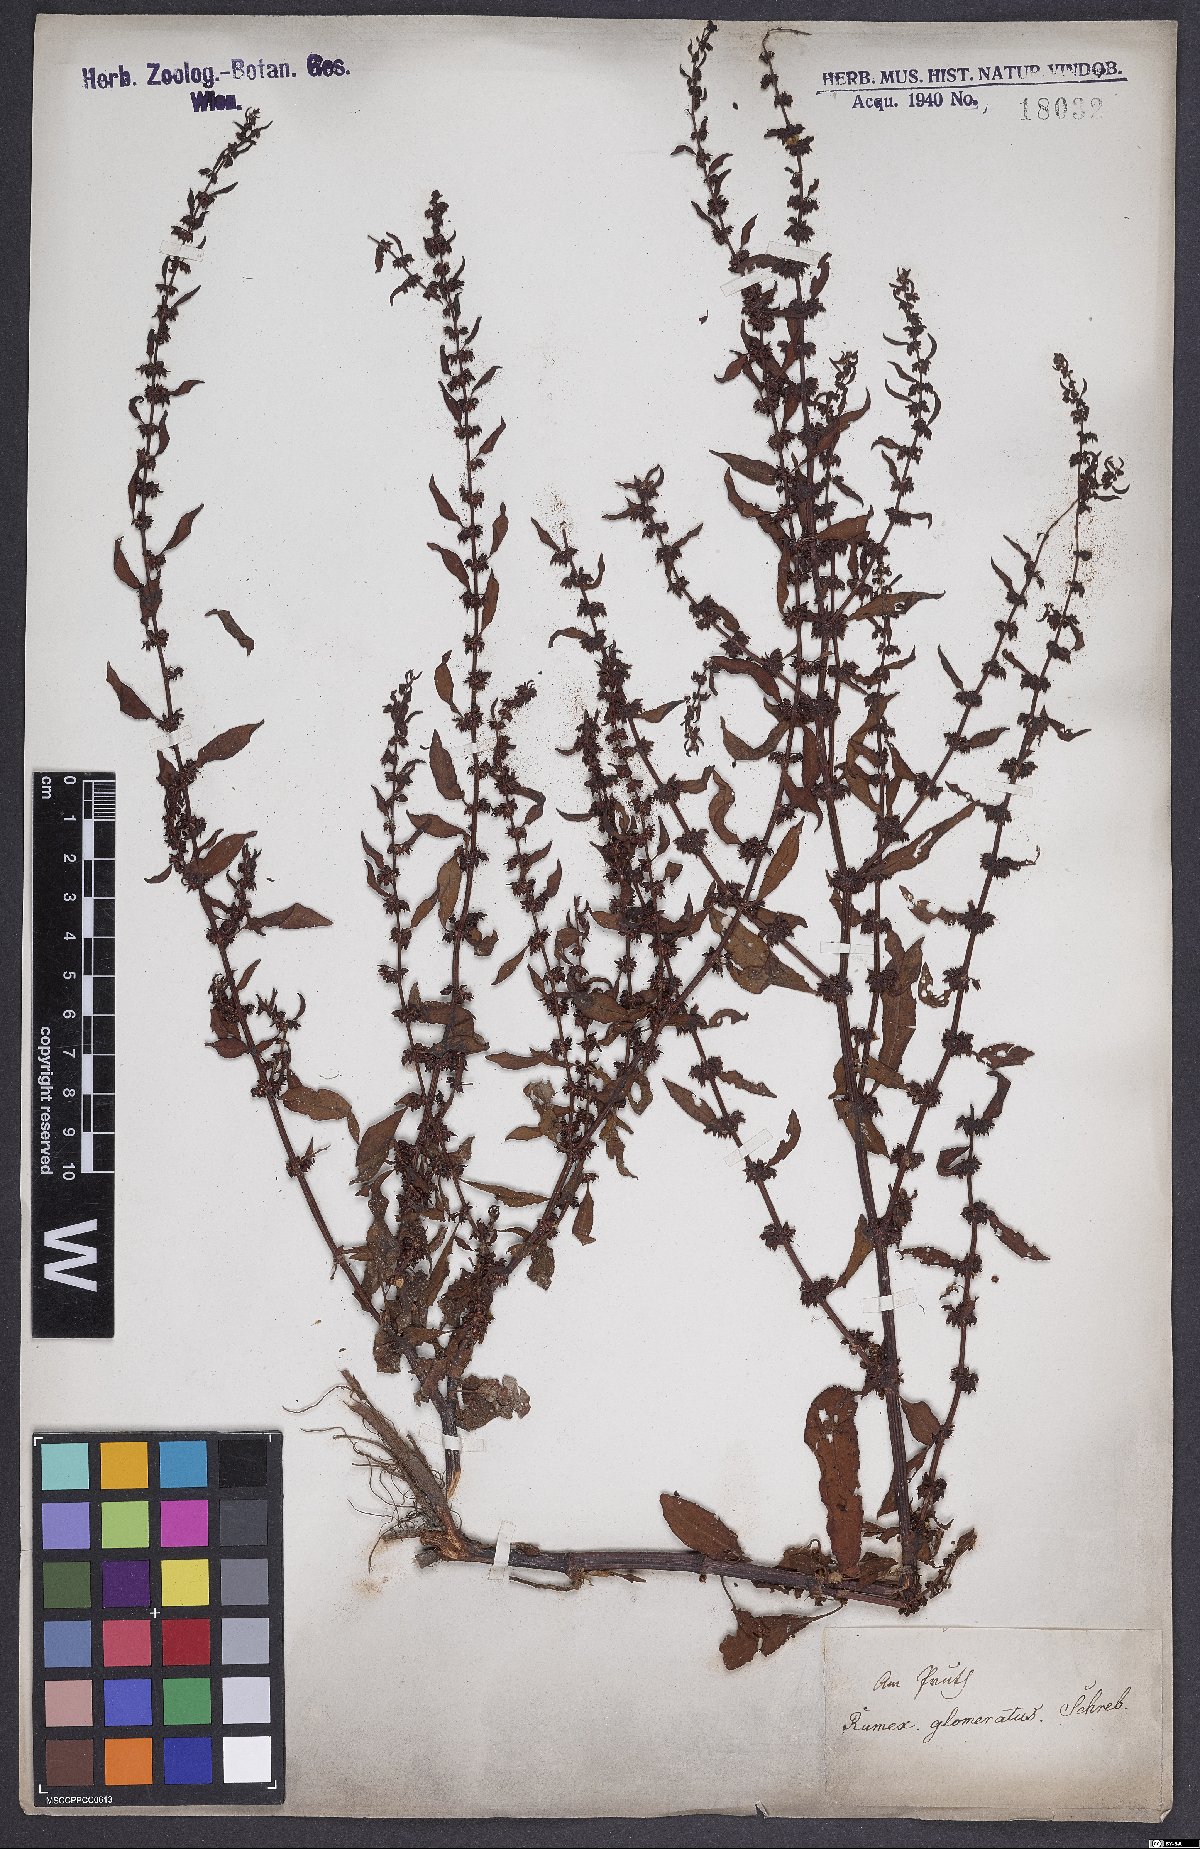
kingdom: Plantae
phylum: Tracheophyta
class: Magnoliopsida
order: Caryophyllales
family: Polygonaceae
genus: Rumex
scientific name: Rumex conglomeratus
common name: Clustered dock
